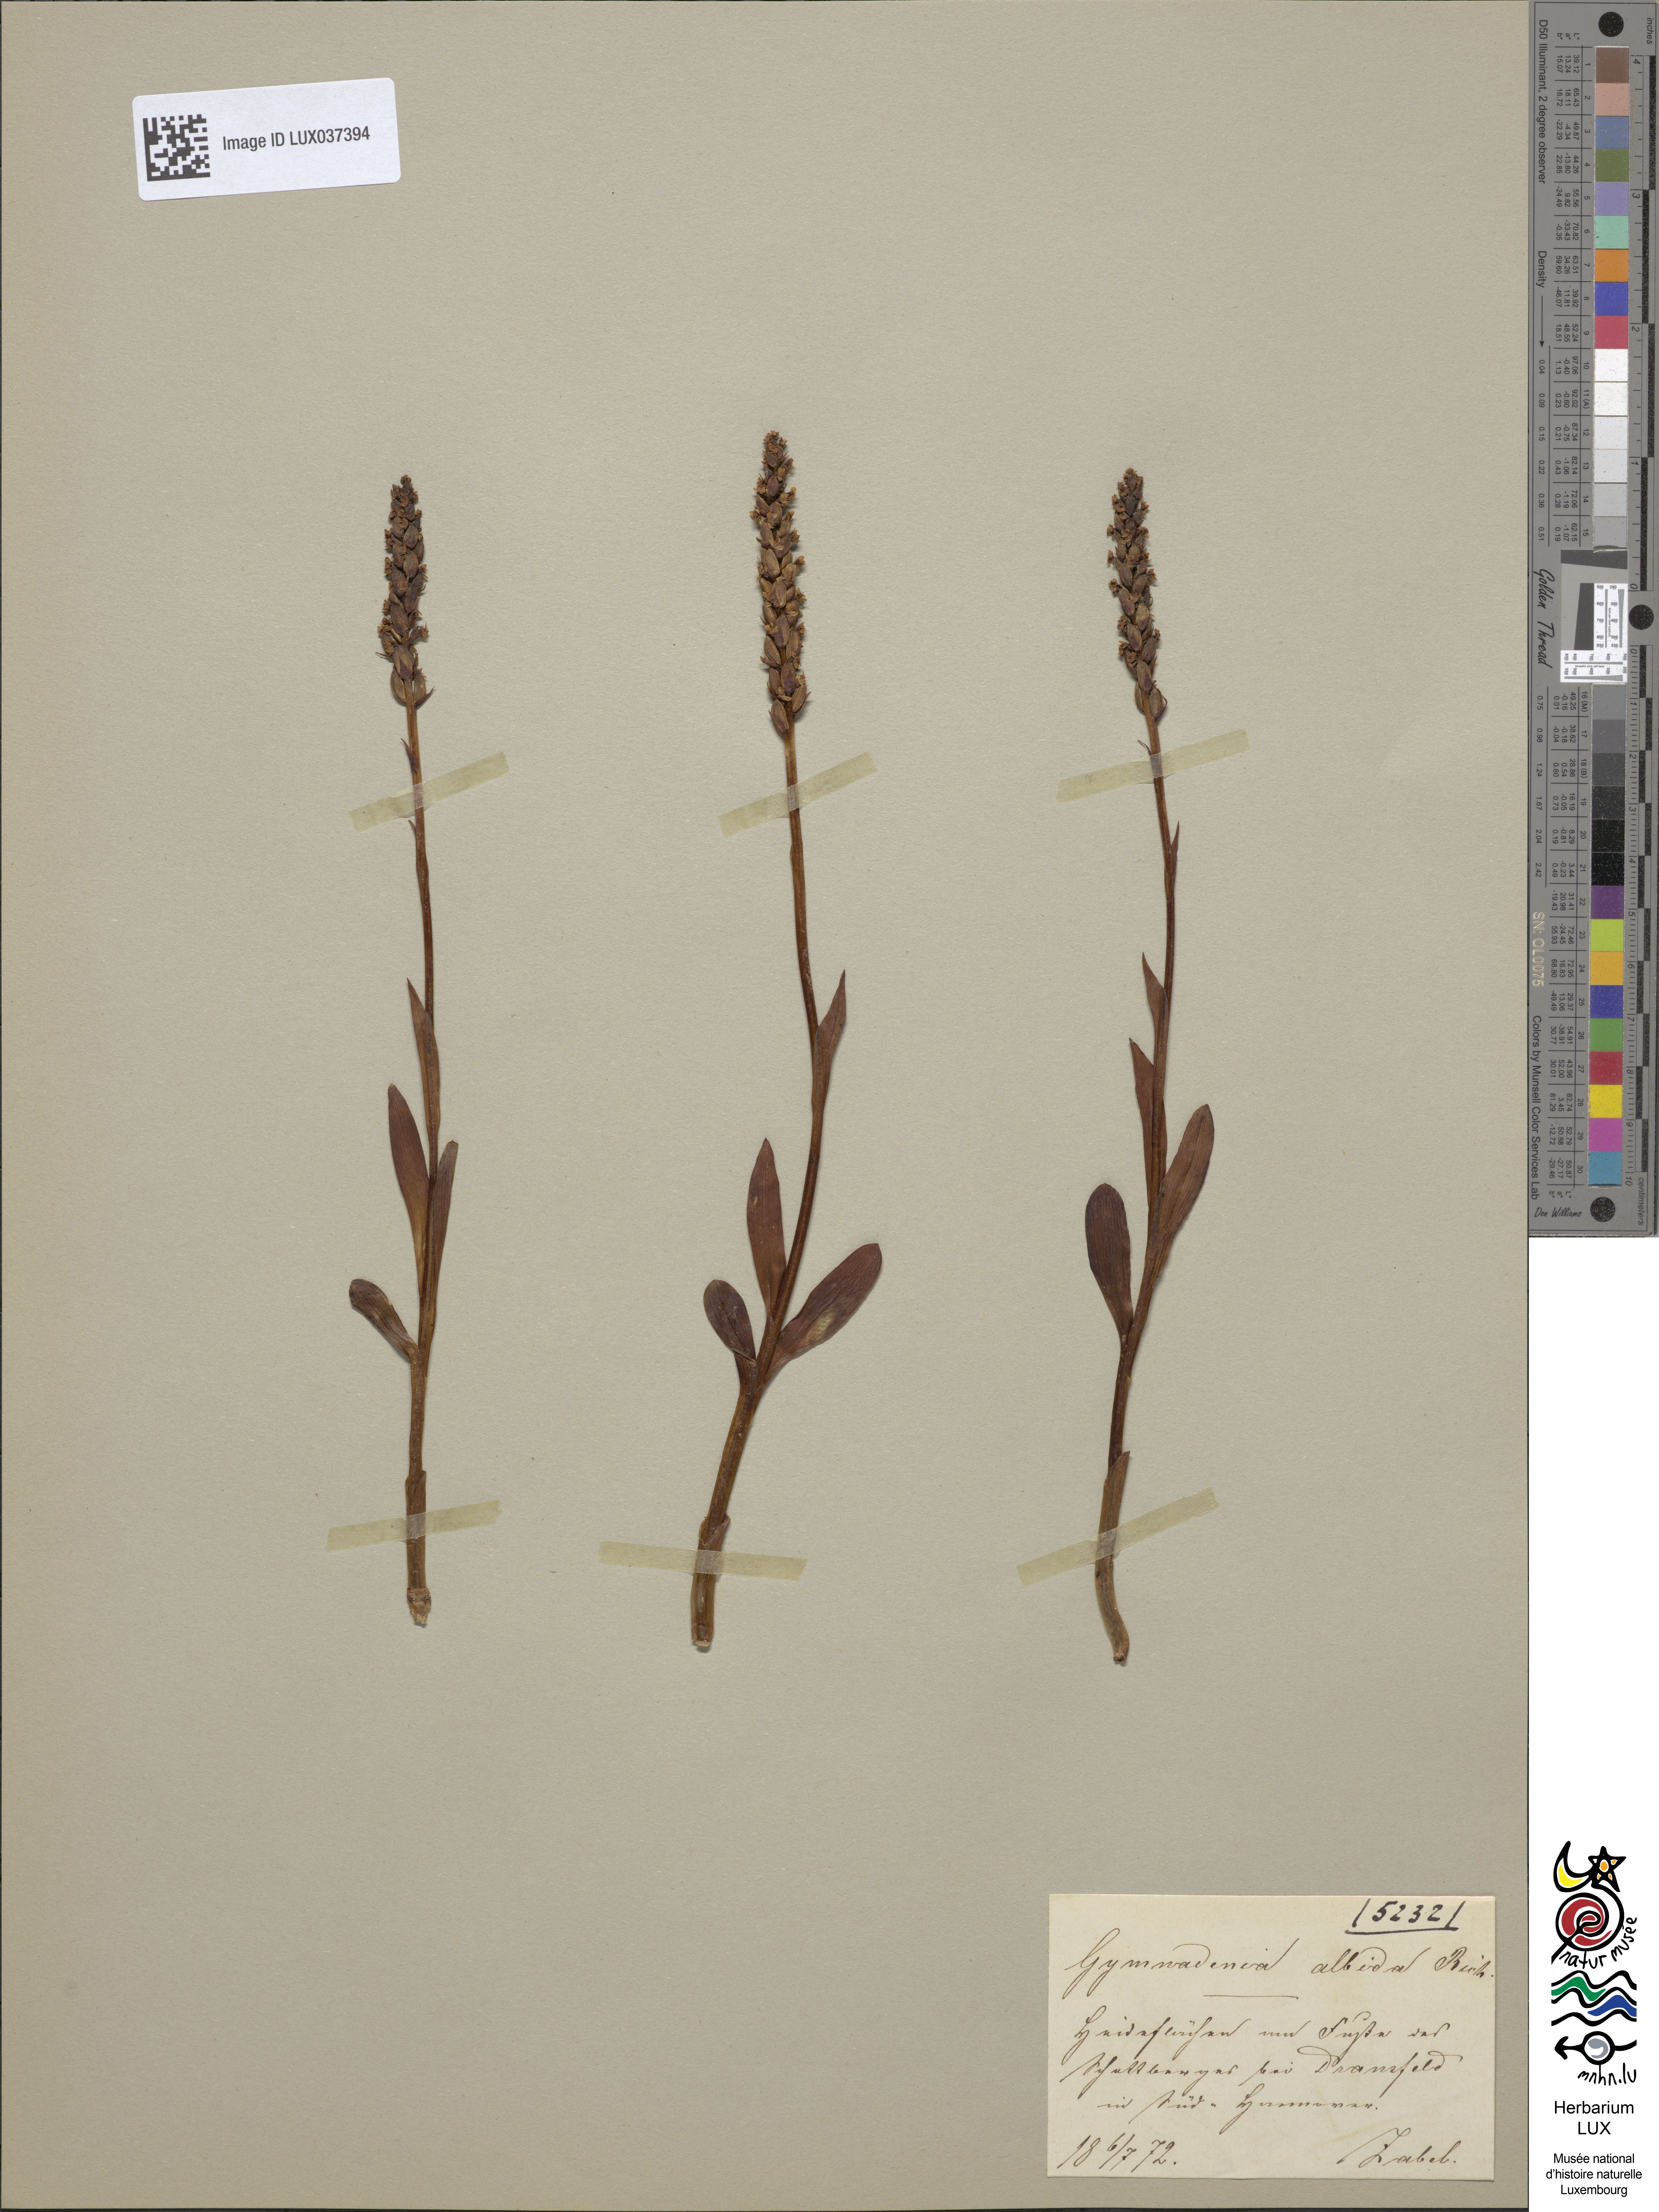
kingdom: Plantae
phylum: Tracheophyta
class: Liliopsida
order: Asparagales
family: Orchidaceae
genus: Pseudorchis
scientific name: Pseudorchis albida
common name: Small-white orchid
